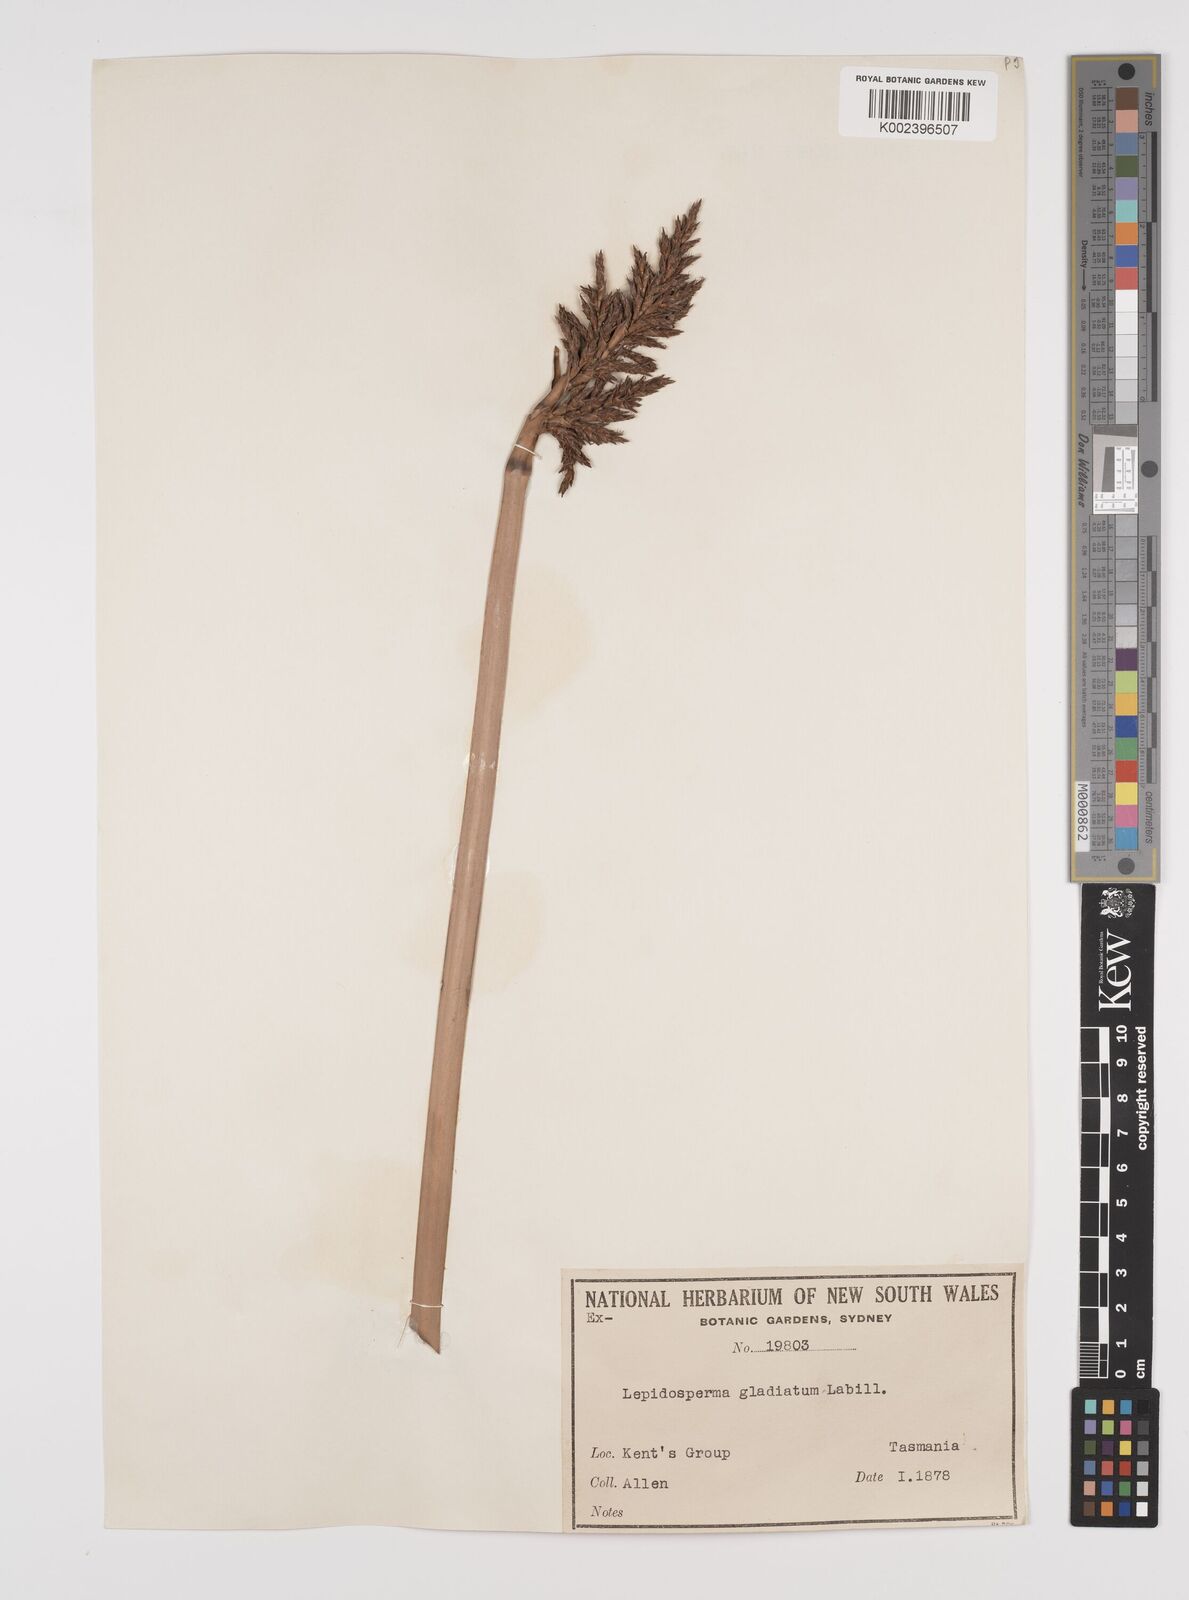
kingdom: Plantae
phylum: Tracheophyta
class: Liliopsida
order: Poales
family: Cyperaceae
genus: Lepidosperma
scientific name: Lepidosperma gladiatum
